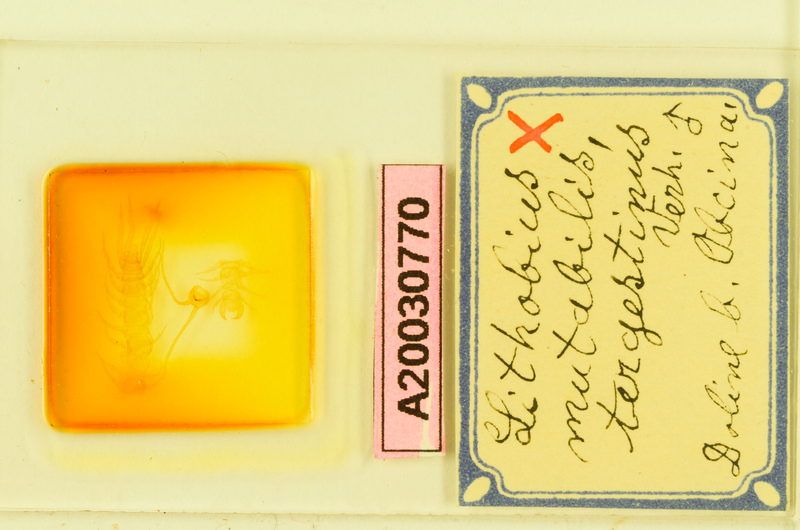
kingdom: Animalia
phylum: Arthropoda
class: Chilopoda
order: Lithobiomorpha
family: Lithobiidae
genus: Lithobius
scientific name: Lithobius mutabilis
